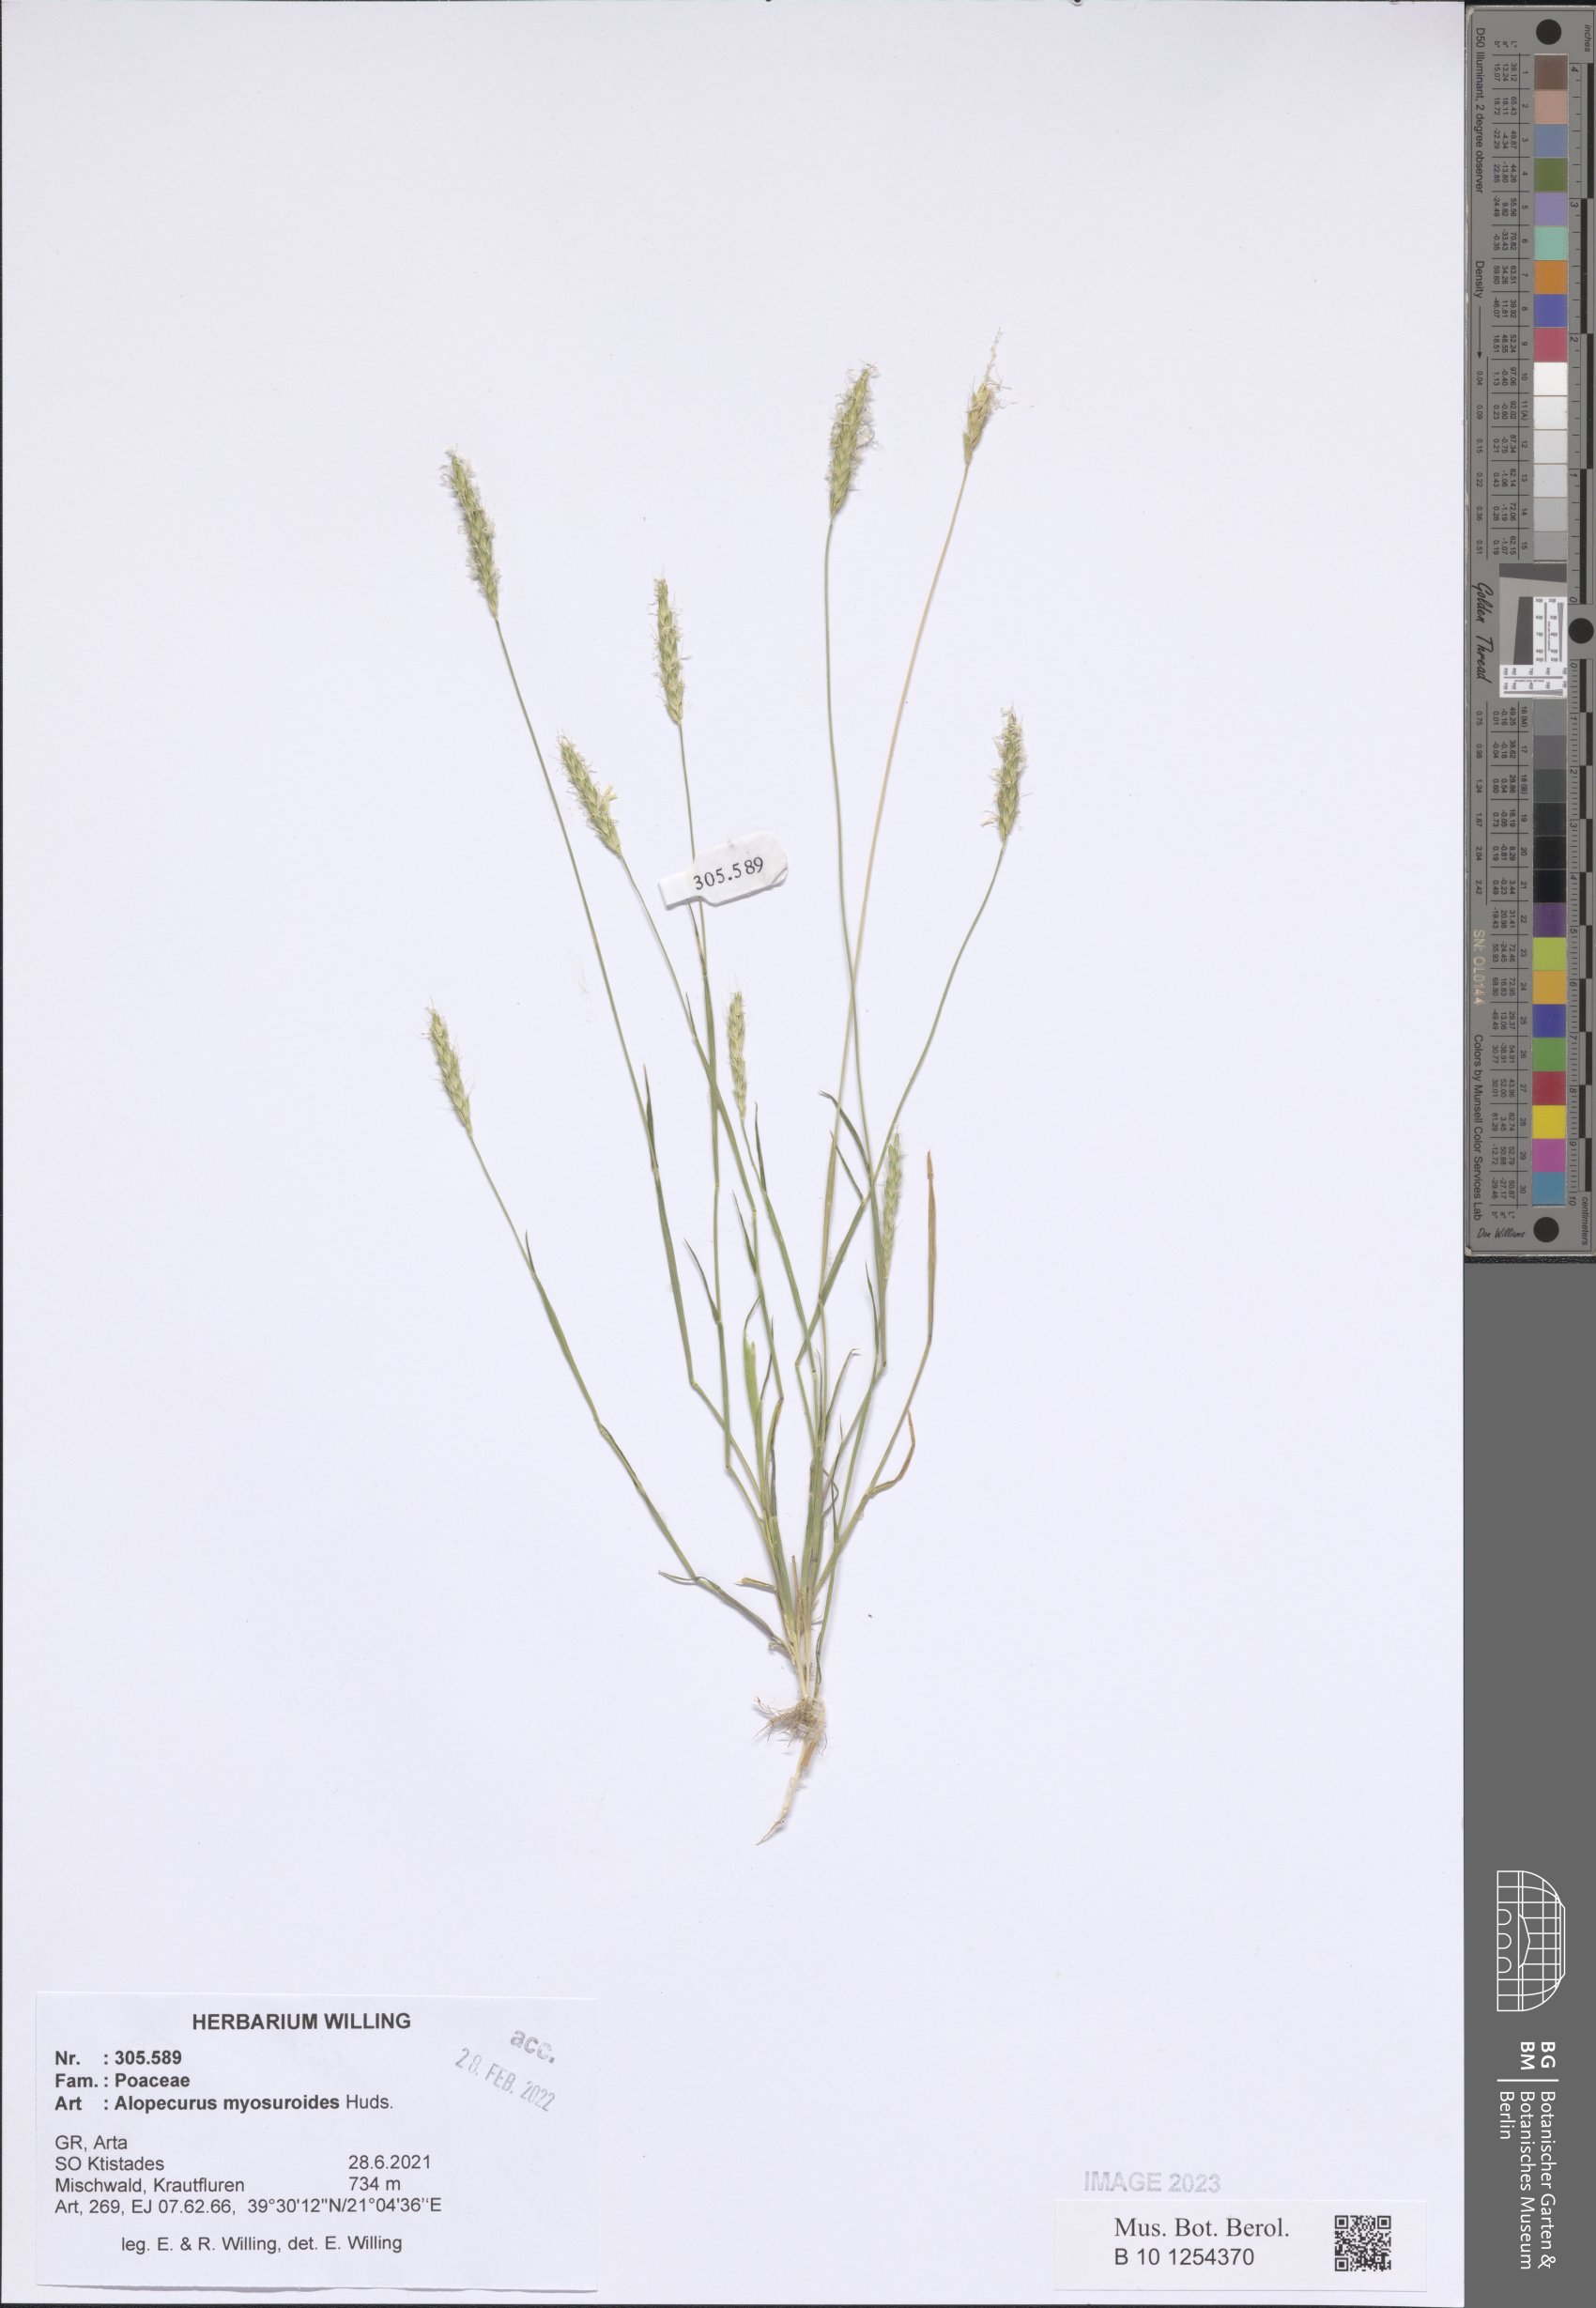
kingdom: Plantae
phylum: Tracheophyta
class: Liliopsida
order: Poales
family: Poaceae
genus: Alopecurus
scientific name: Alopecurus myosuroides
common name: Black-grass
